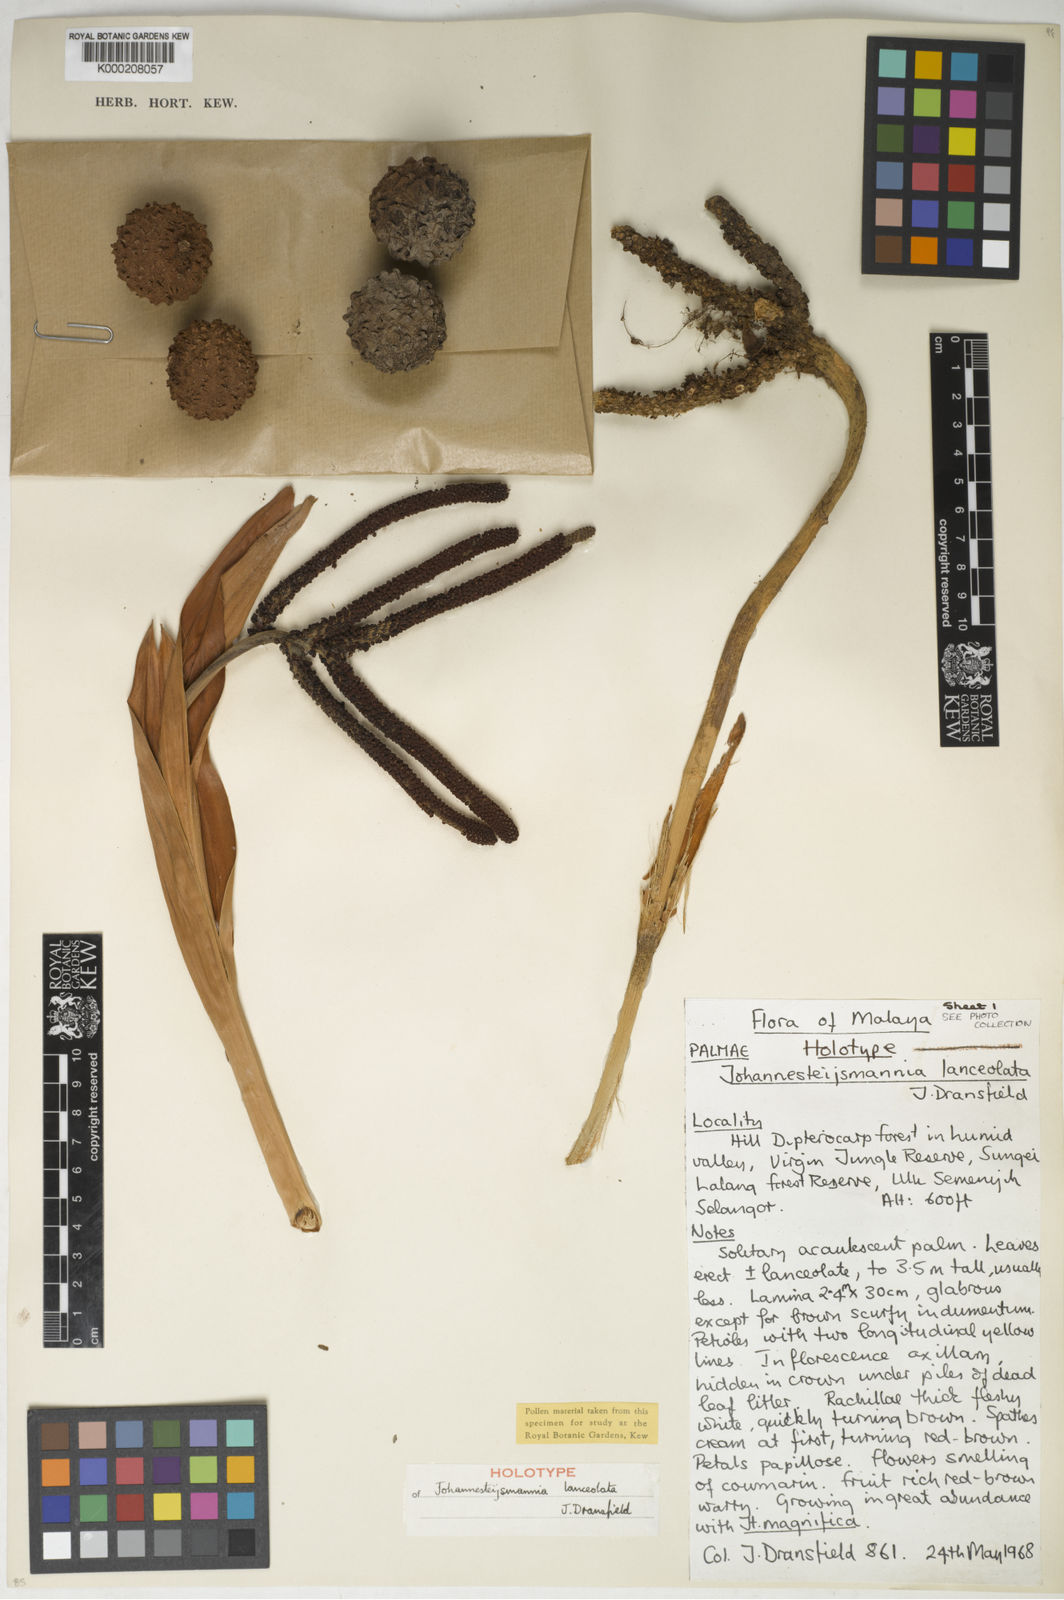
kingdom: Plantae
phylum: Tracheophyta
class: Liliopsida
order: Arecales
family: Arecaceae
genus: Johannesteijsmannia
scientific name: Johannesteijsmannia lanceolata
